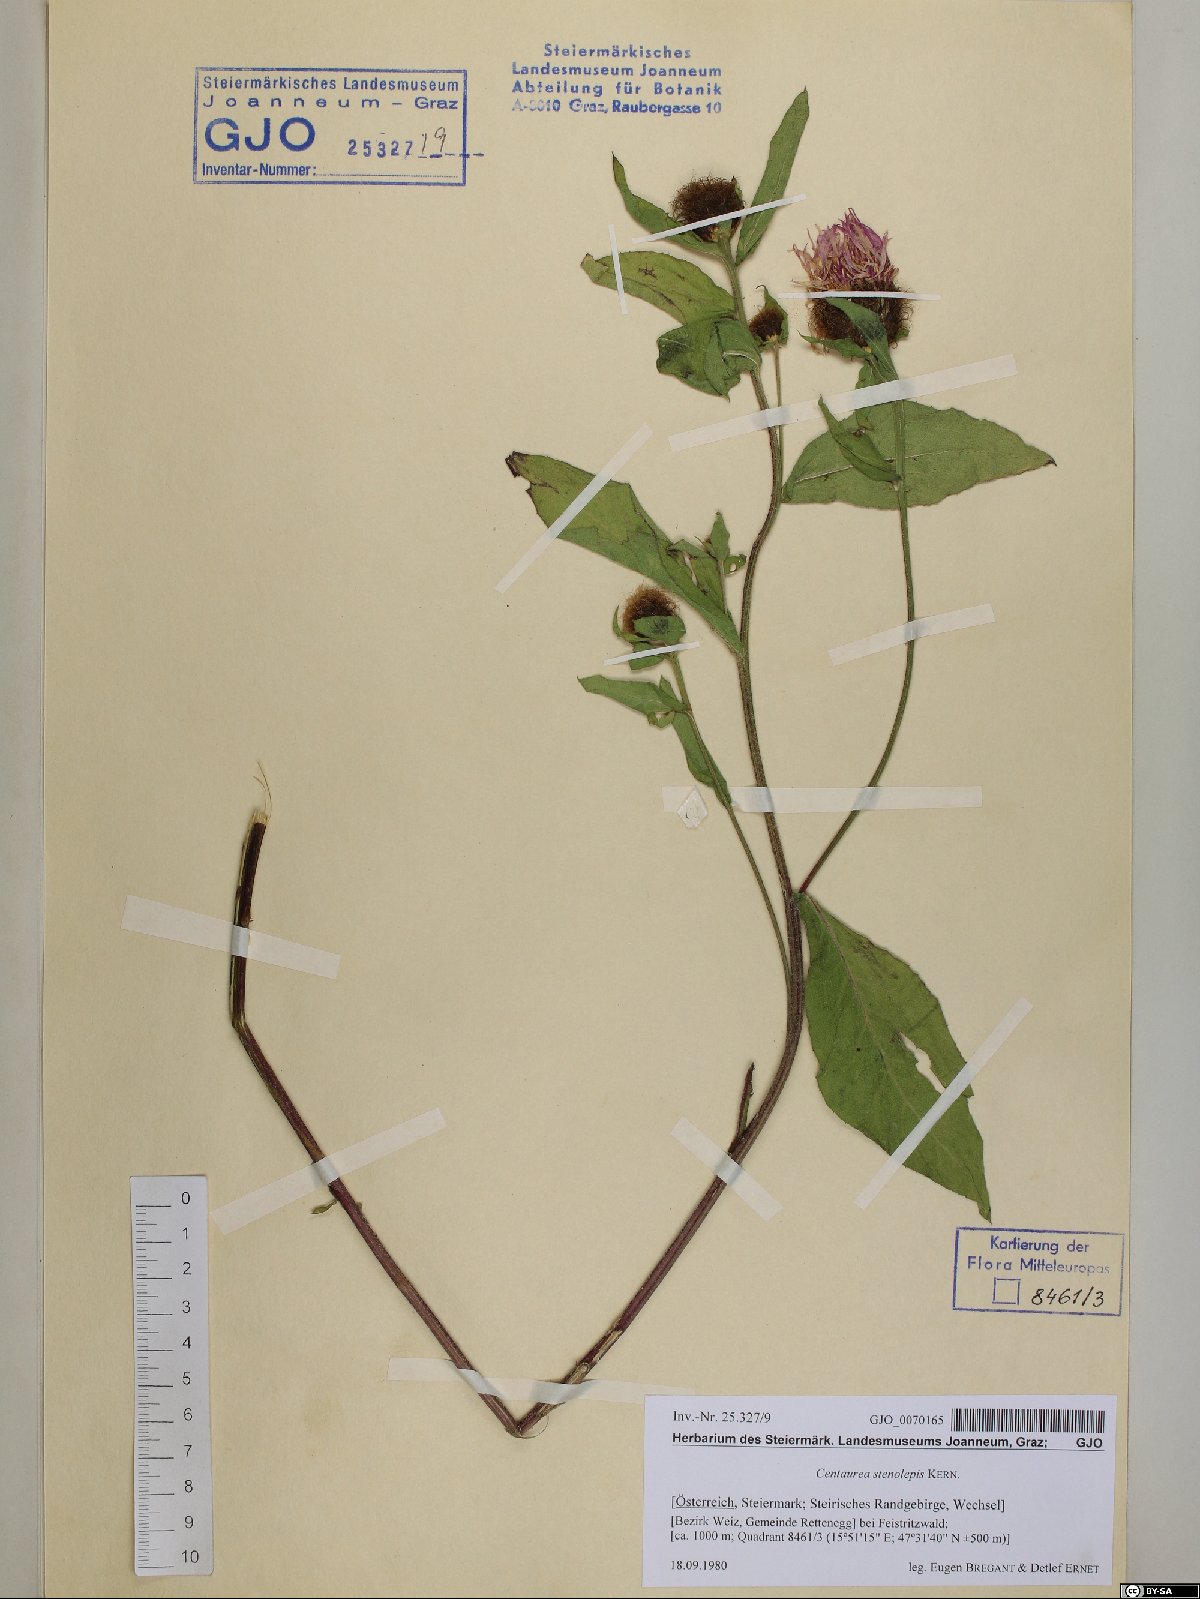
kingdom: Plantae
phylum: Tracheophyta
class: Magnoliopsida
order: Asterales
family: Asteraceae
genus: Centaurea
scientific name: Centaurea stenolepis
